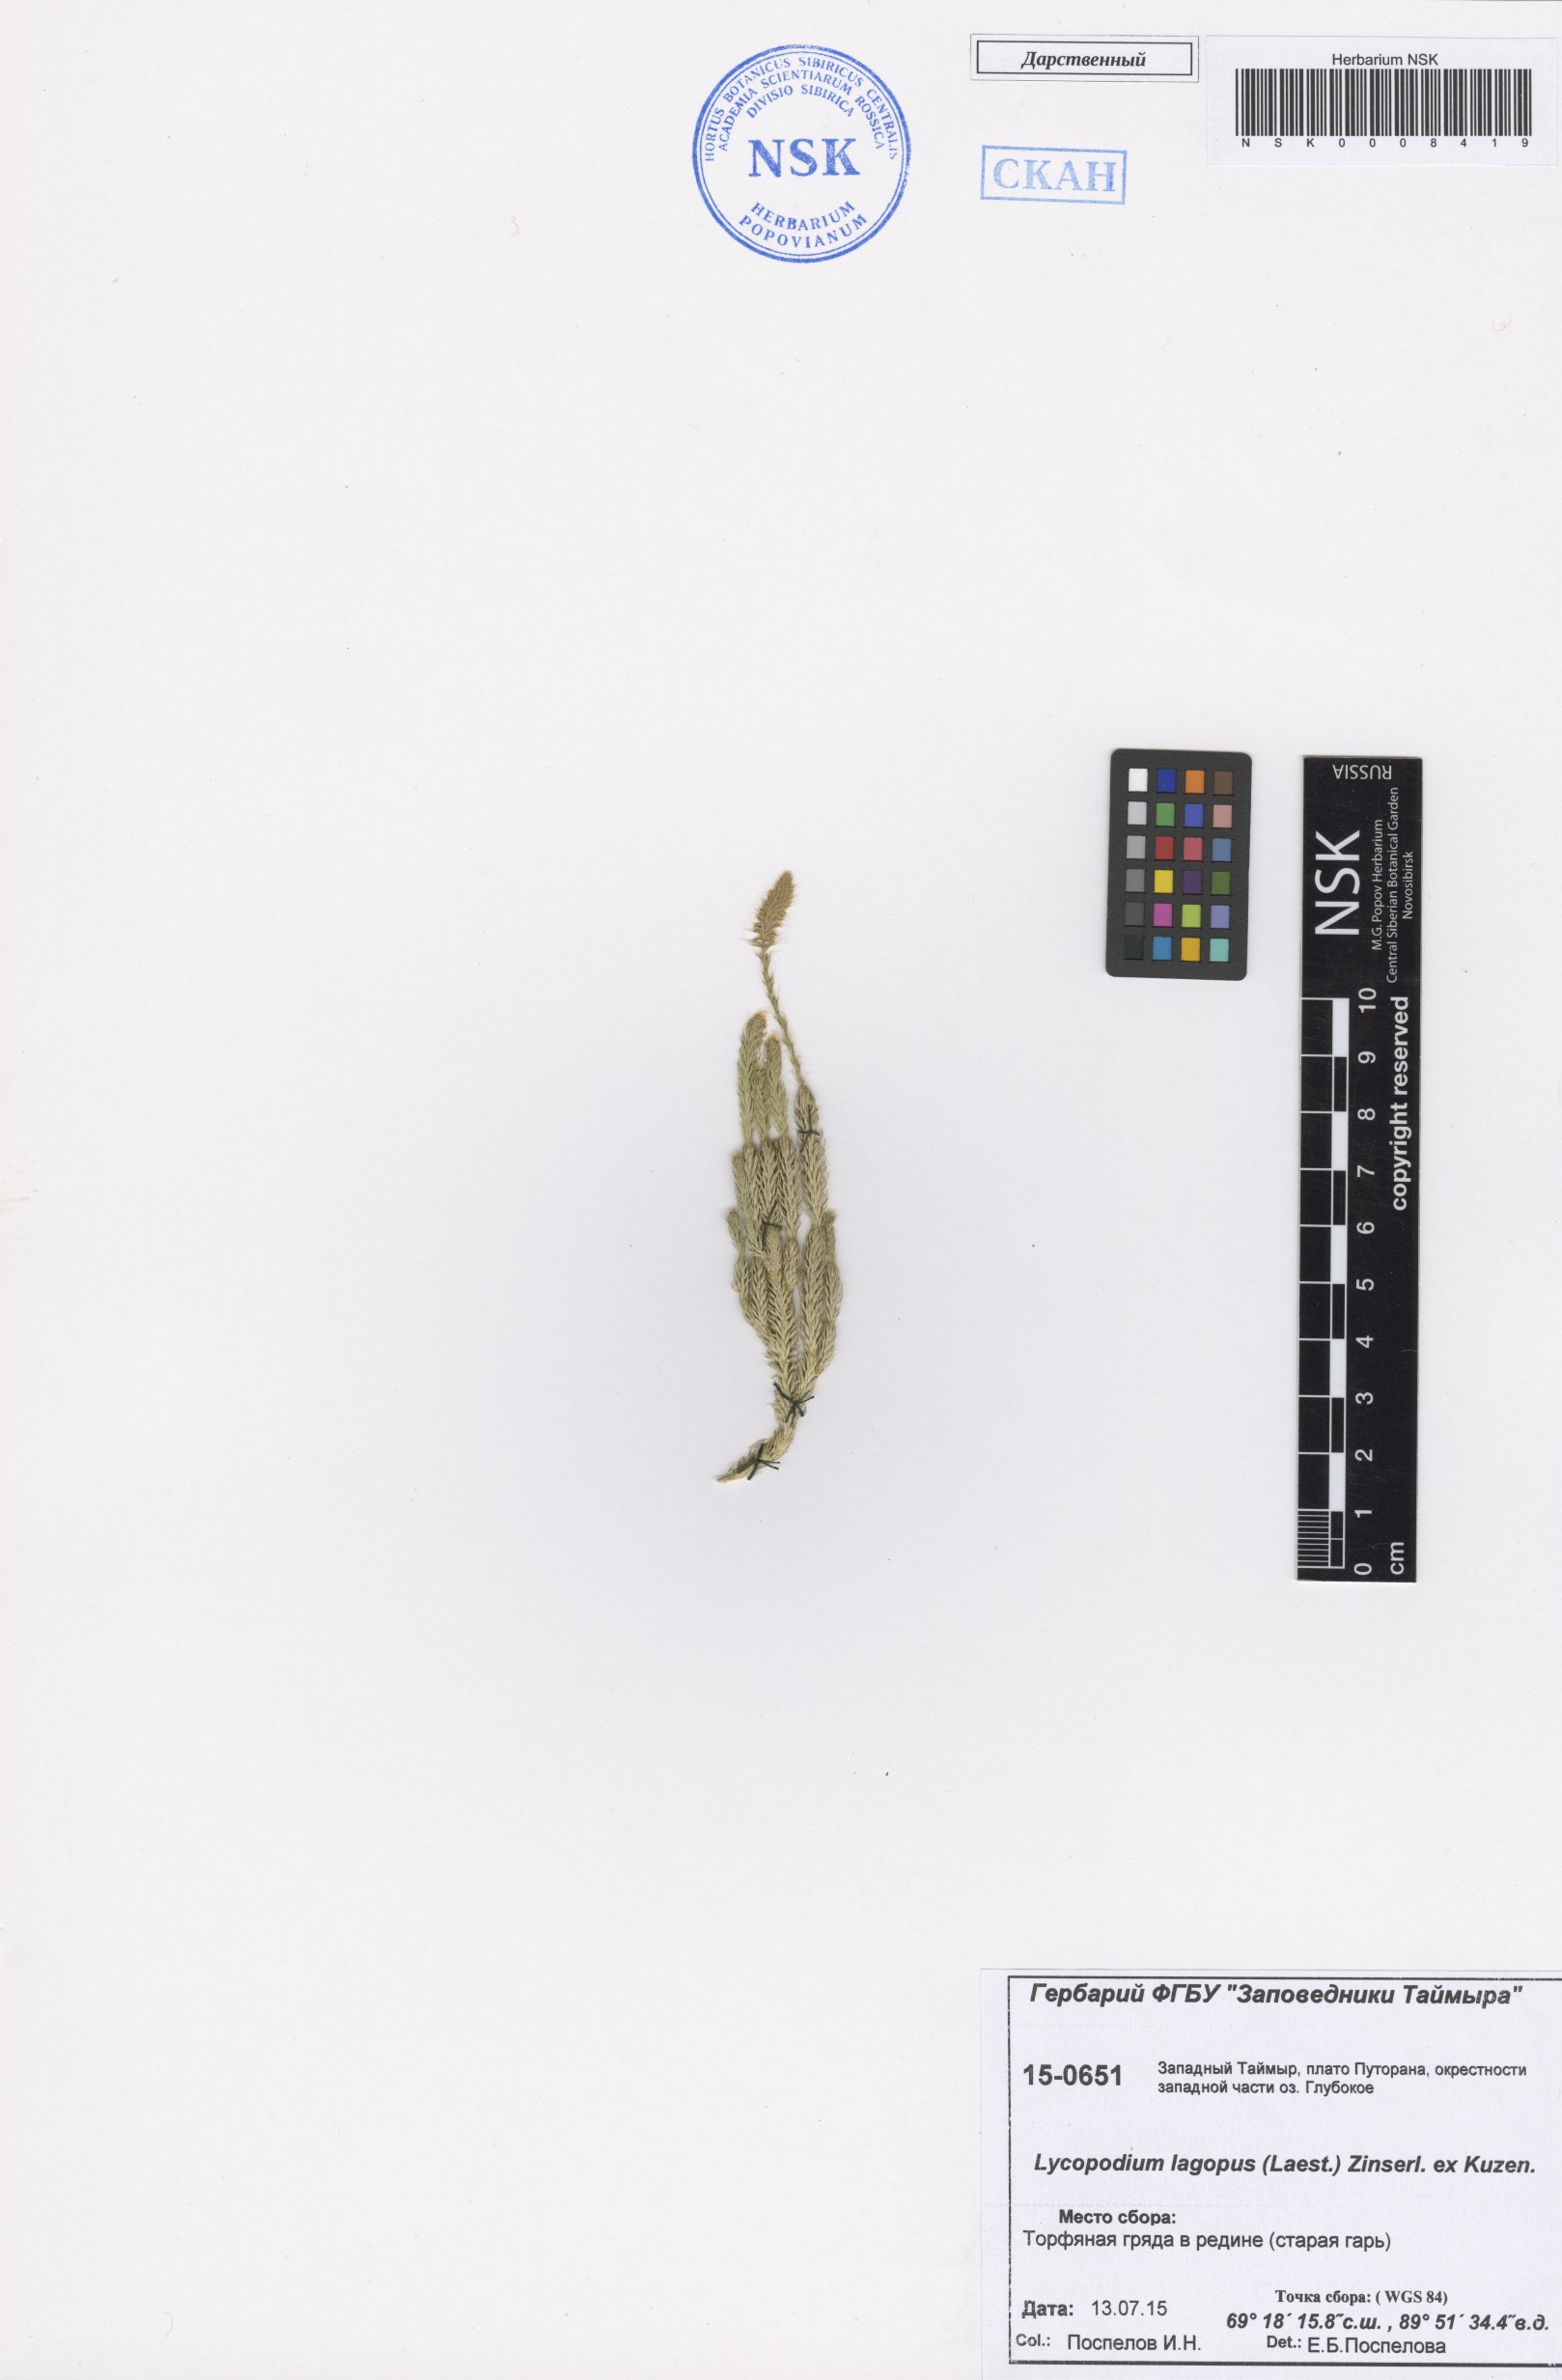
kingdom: Plantae
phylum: Tracheophyta
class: Lycopodiopsida
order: Lycopodiales
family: Lycopodiaceae
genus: Lycopodium
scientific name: Lycopodium lagopus
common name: One-cone clubmoss
